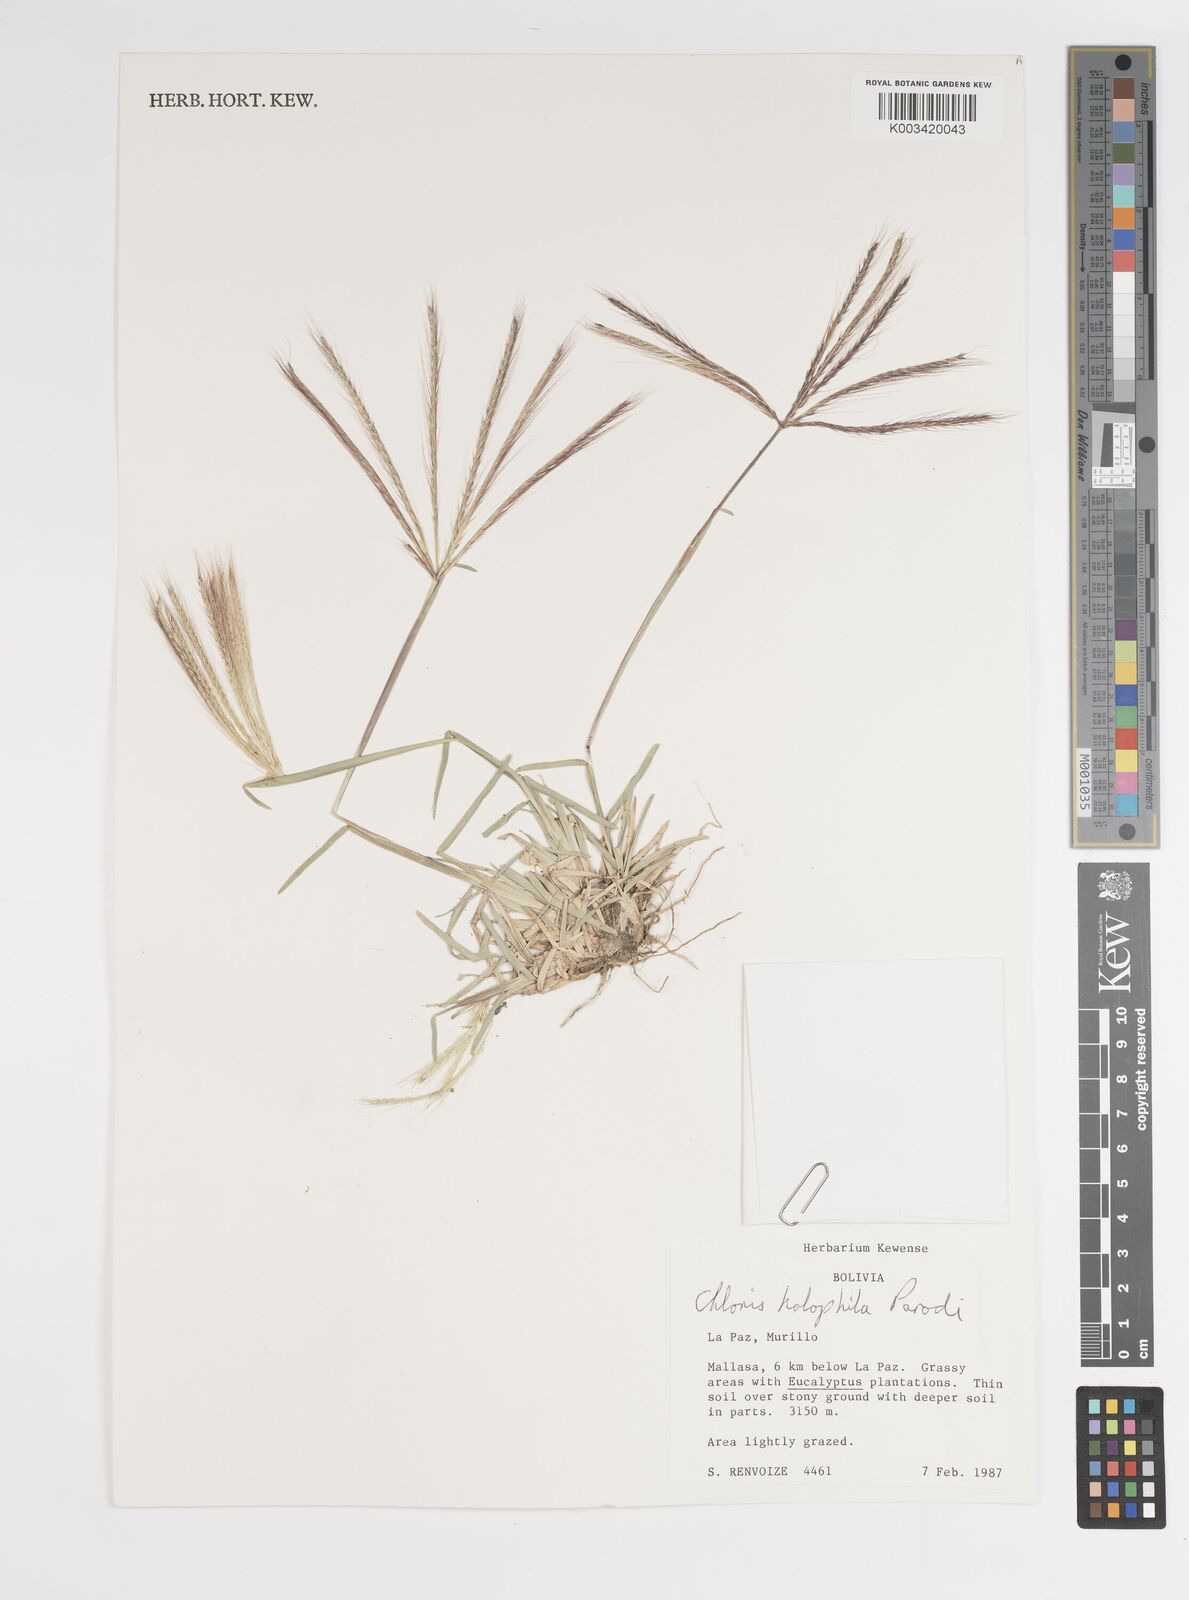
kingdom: Plantae
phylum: Tracheophyta
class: Liliopsida
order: Poales
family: Poaceae
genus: Chloris
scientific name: Chloris halophila
